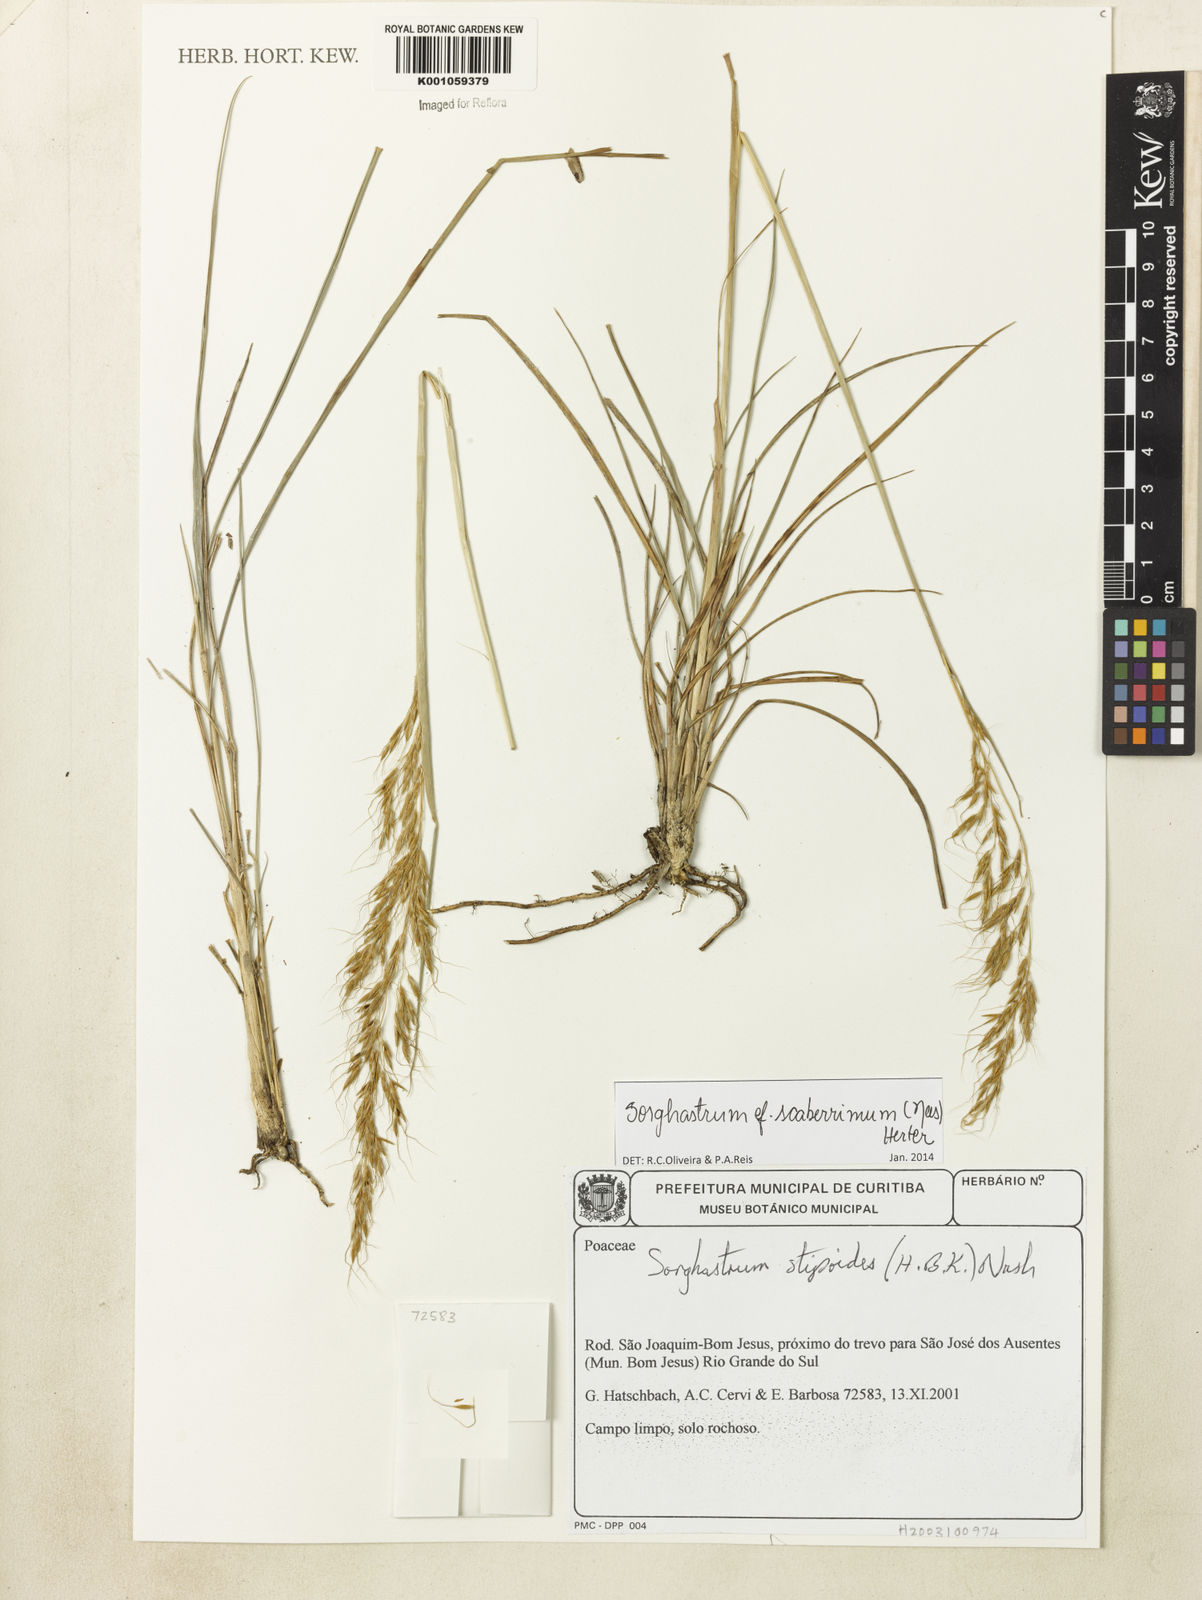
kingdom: Plantae
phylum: Tracheophyta
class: Liliopsida
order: Poales
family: Poaceae
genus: Sorghastrum
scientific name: Sorghastrum scaberrimum
